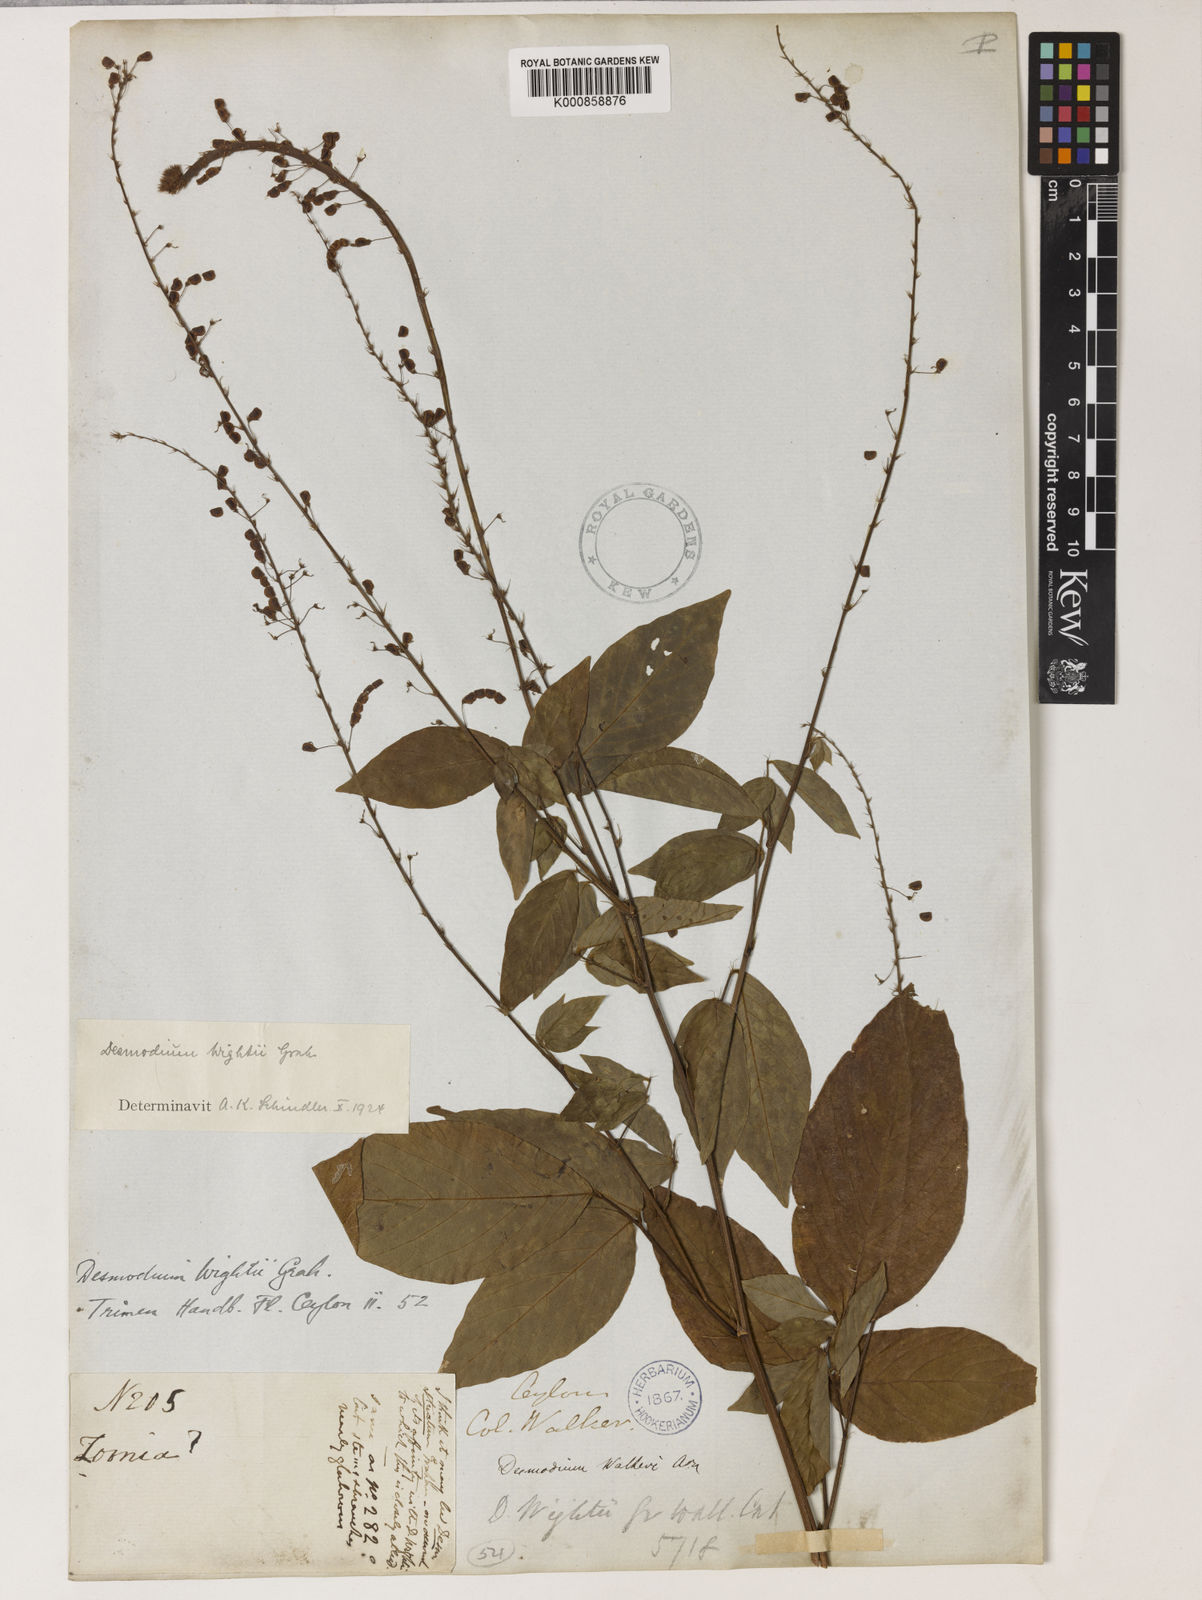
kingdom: Plantae
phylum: Tracheophyta
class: Magnoliopsida
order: Fabales
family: Fabaceae
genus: Pleurolobus
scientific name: Pleurolobus pryonii
